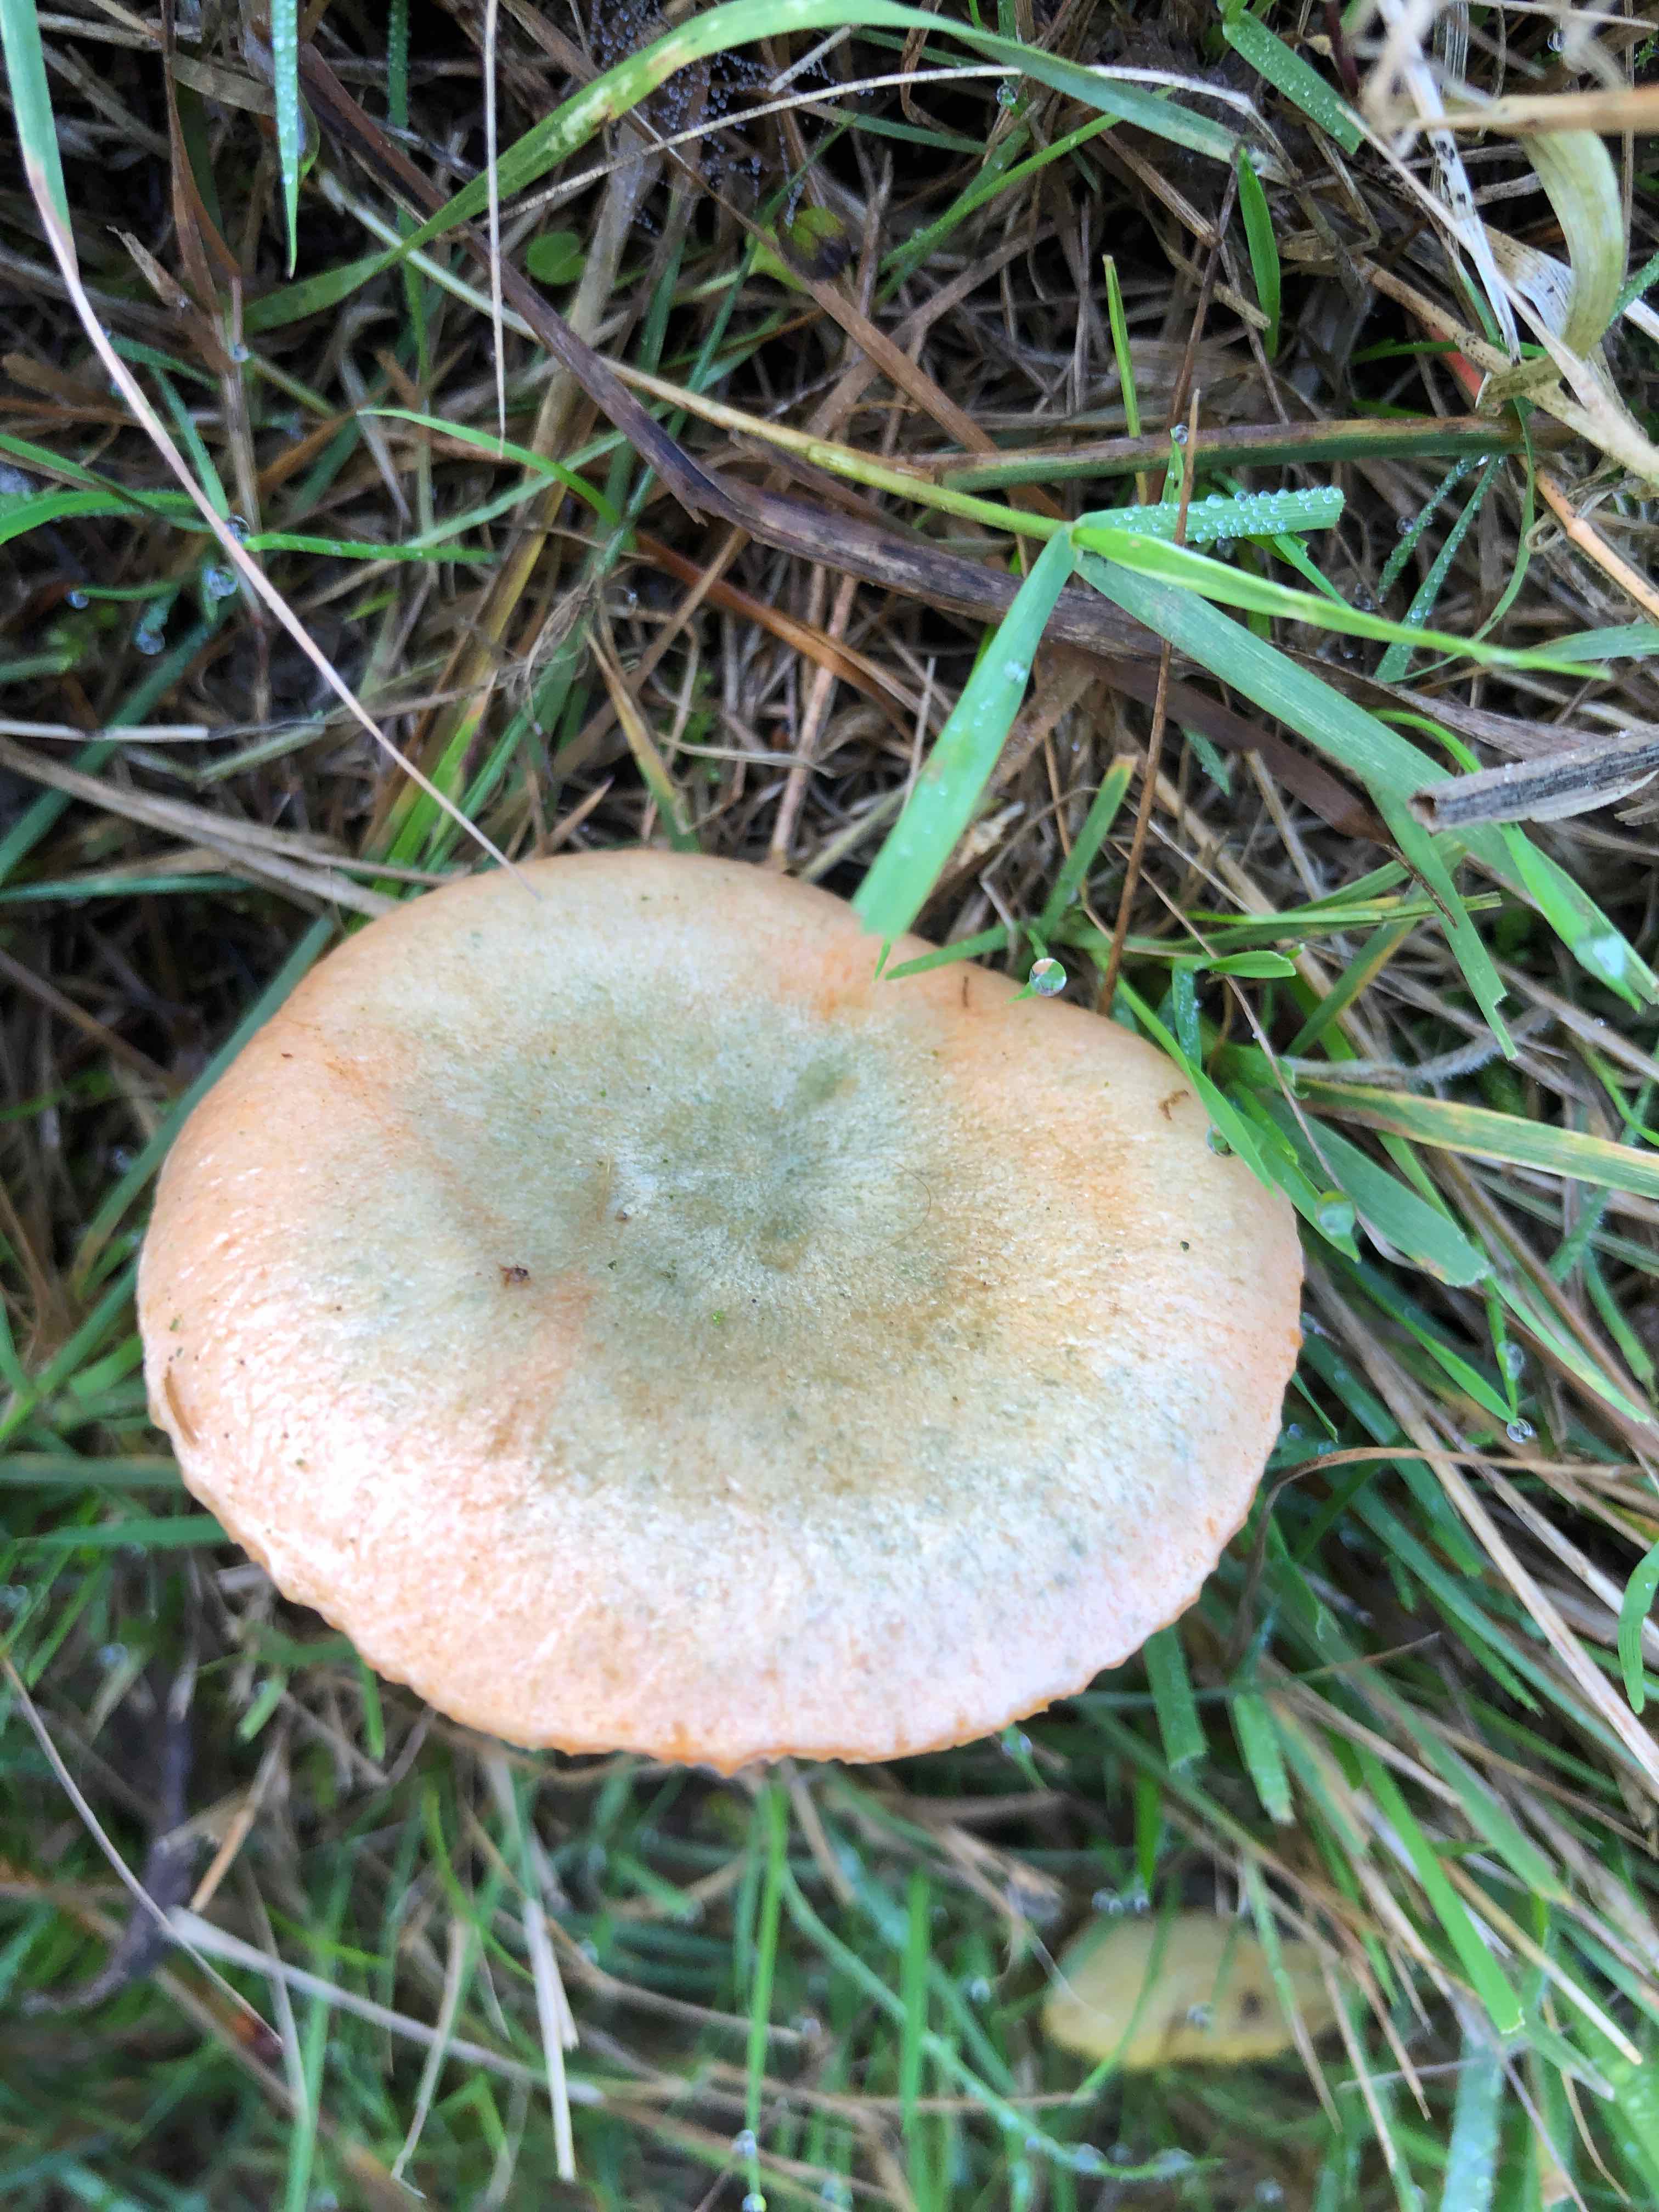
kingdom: Fungi
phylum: Basidiomycota
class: Agaricomycetes
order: Russulales
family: Russulaceae
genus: Lactarius
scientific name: Lactarius deterrimus
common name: gran-mælkehat
